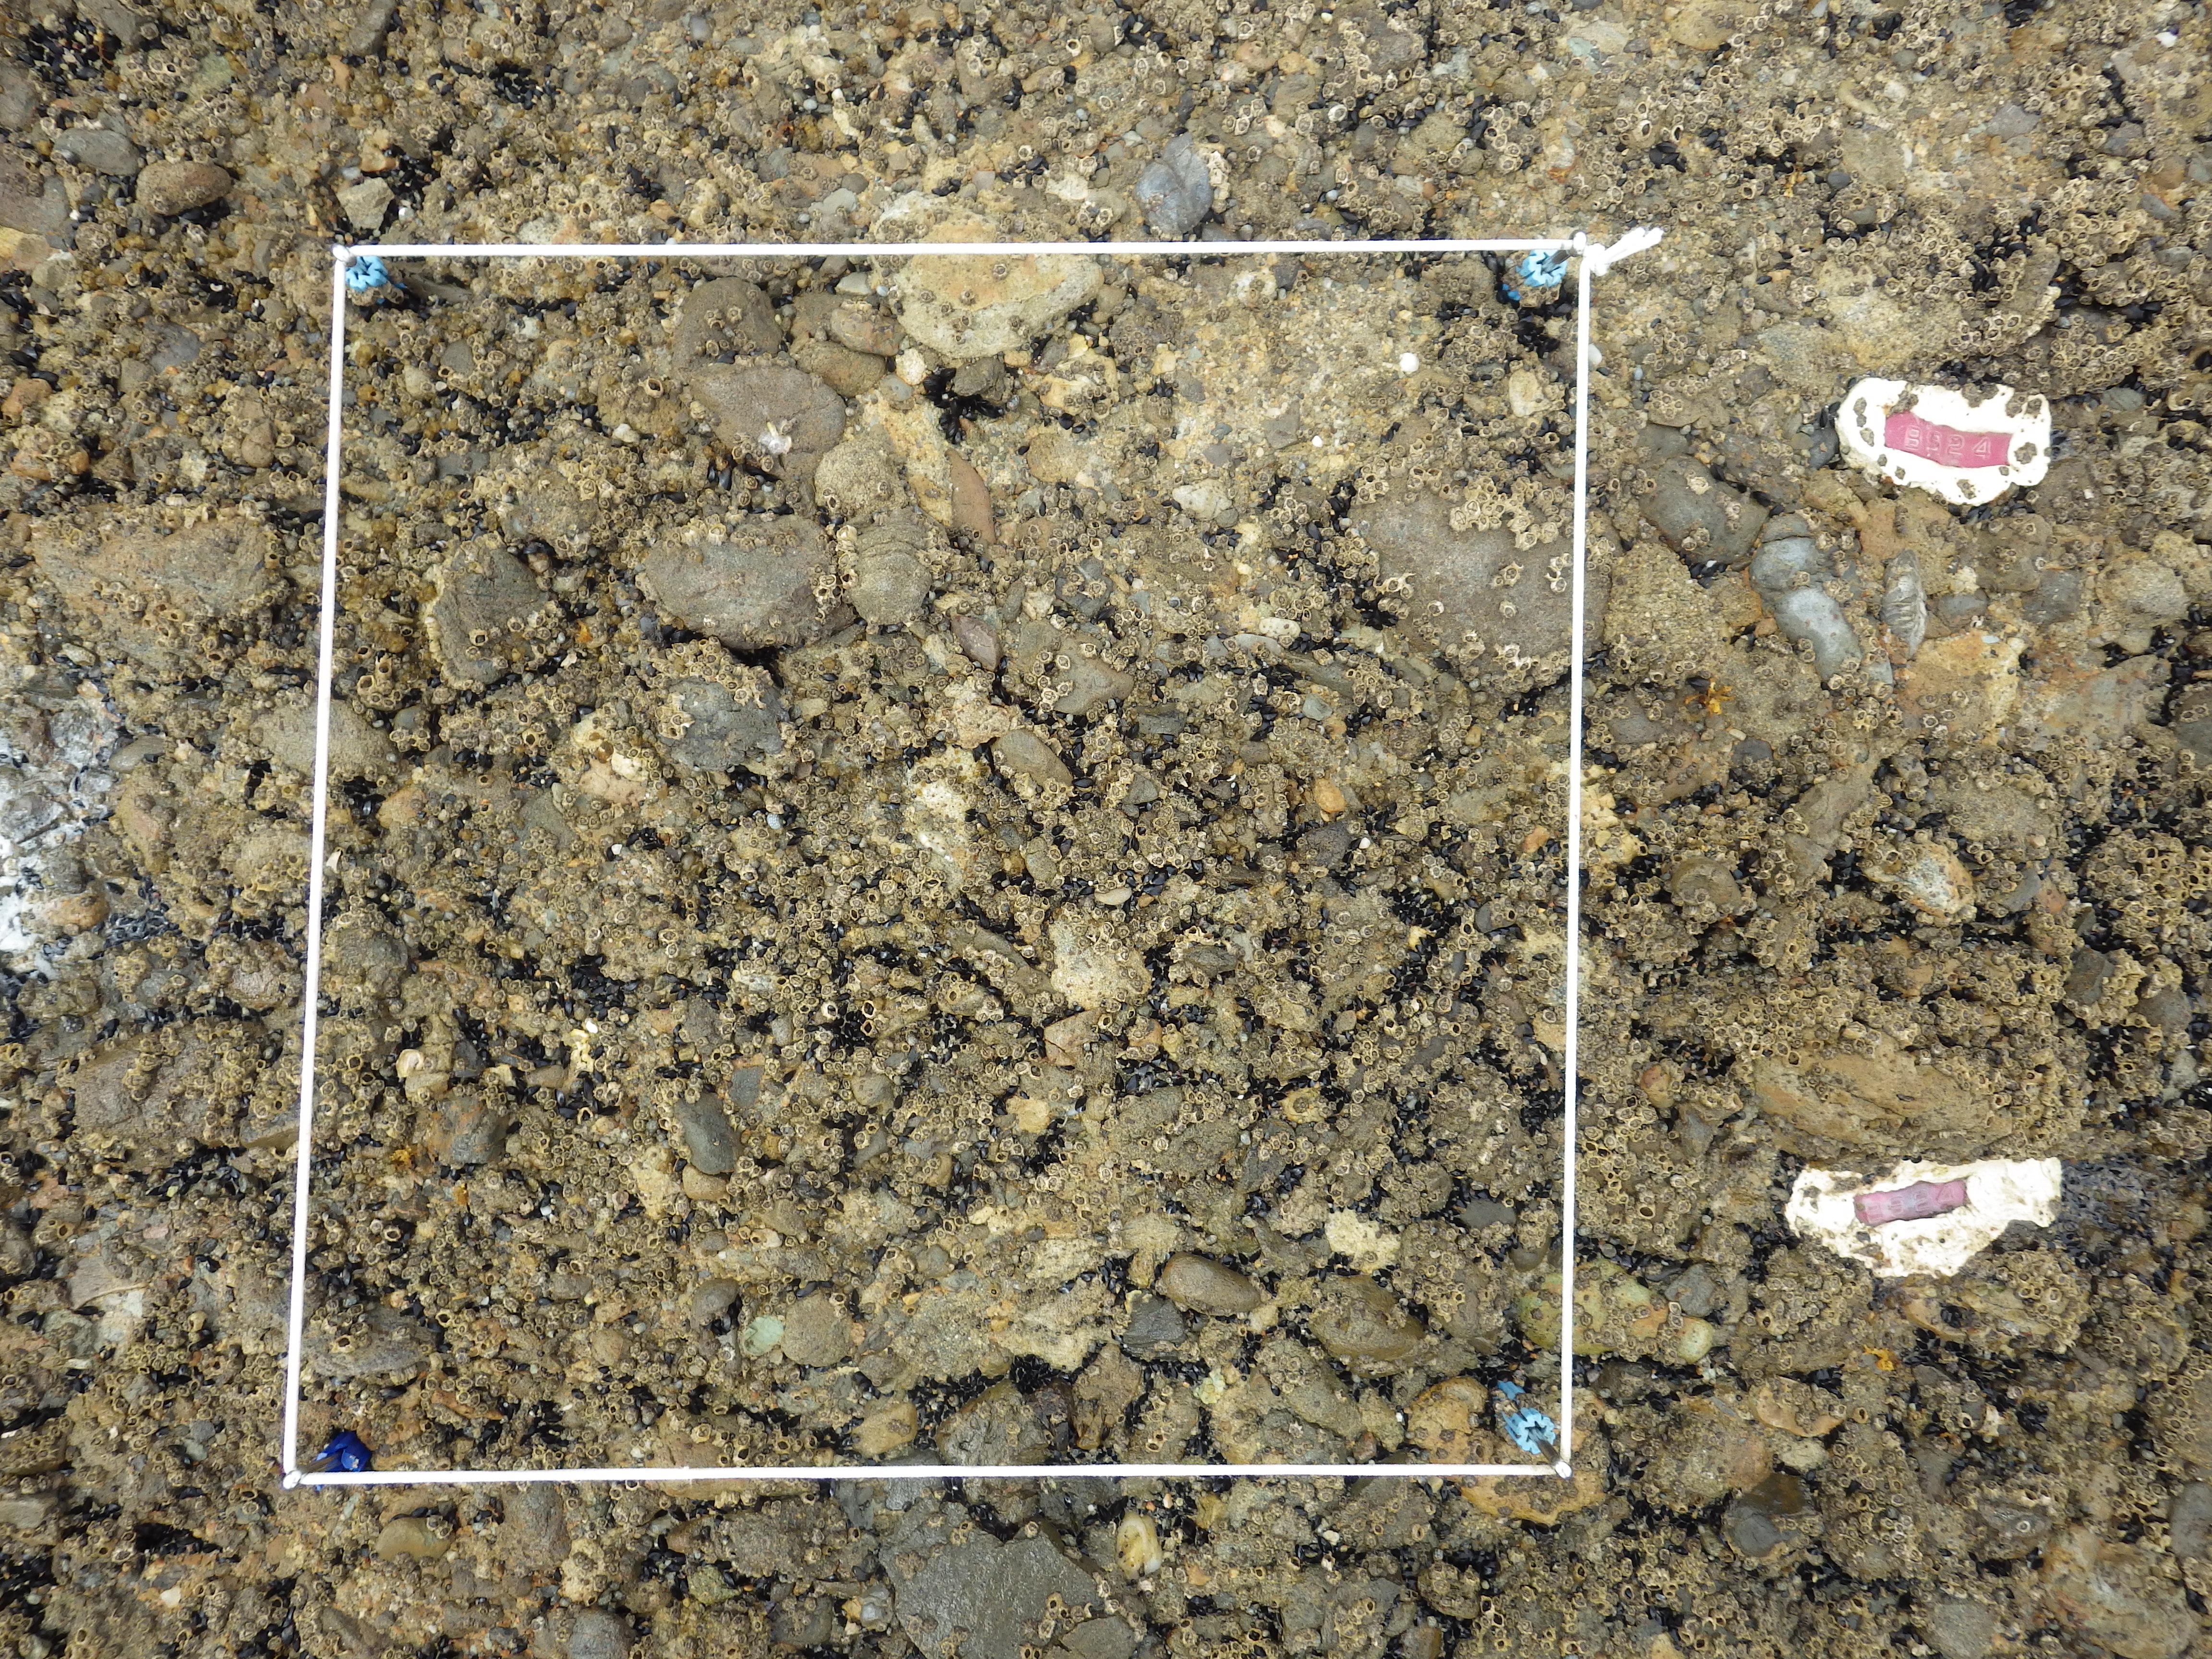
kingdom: Animalia
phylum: Arthropoda
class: Maxillopoda
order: Sessilia
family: Chthamalidae
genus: Chthamalus
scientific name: Chthamalus challengeri
